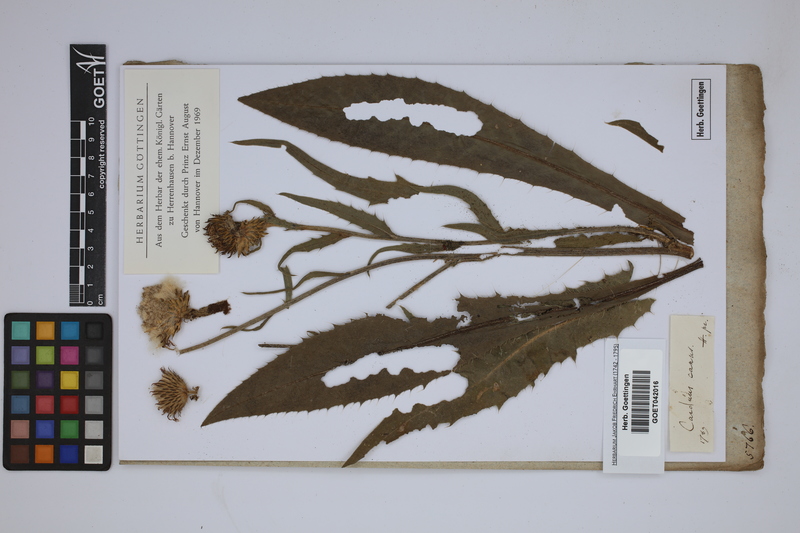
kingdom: Plantae
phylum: Tracheophyta
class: Magnoliopsida
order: Asterales
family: Asteraceae
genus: Cirsium
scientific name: Cirsium canum
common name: Queen anne's thistle
